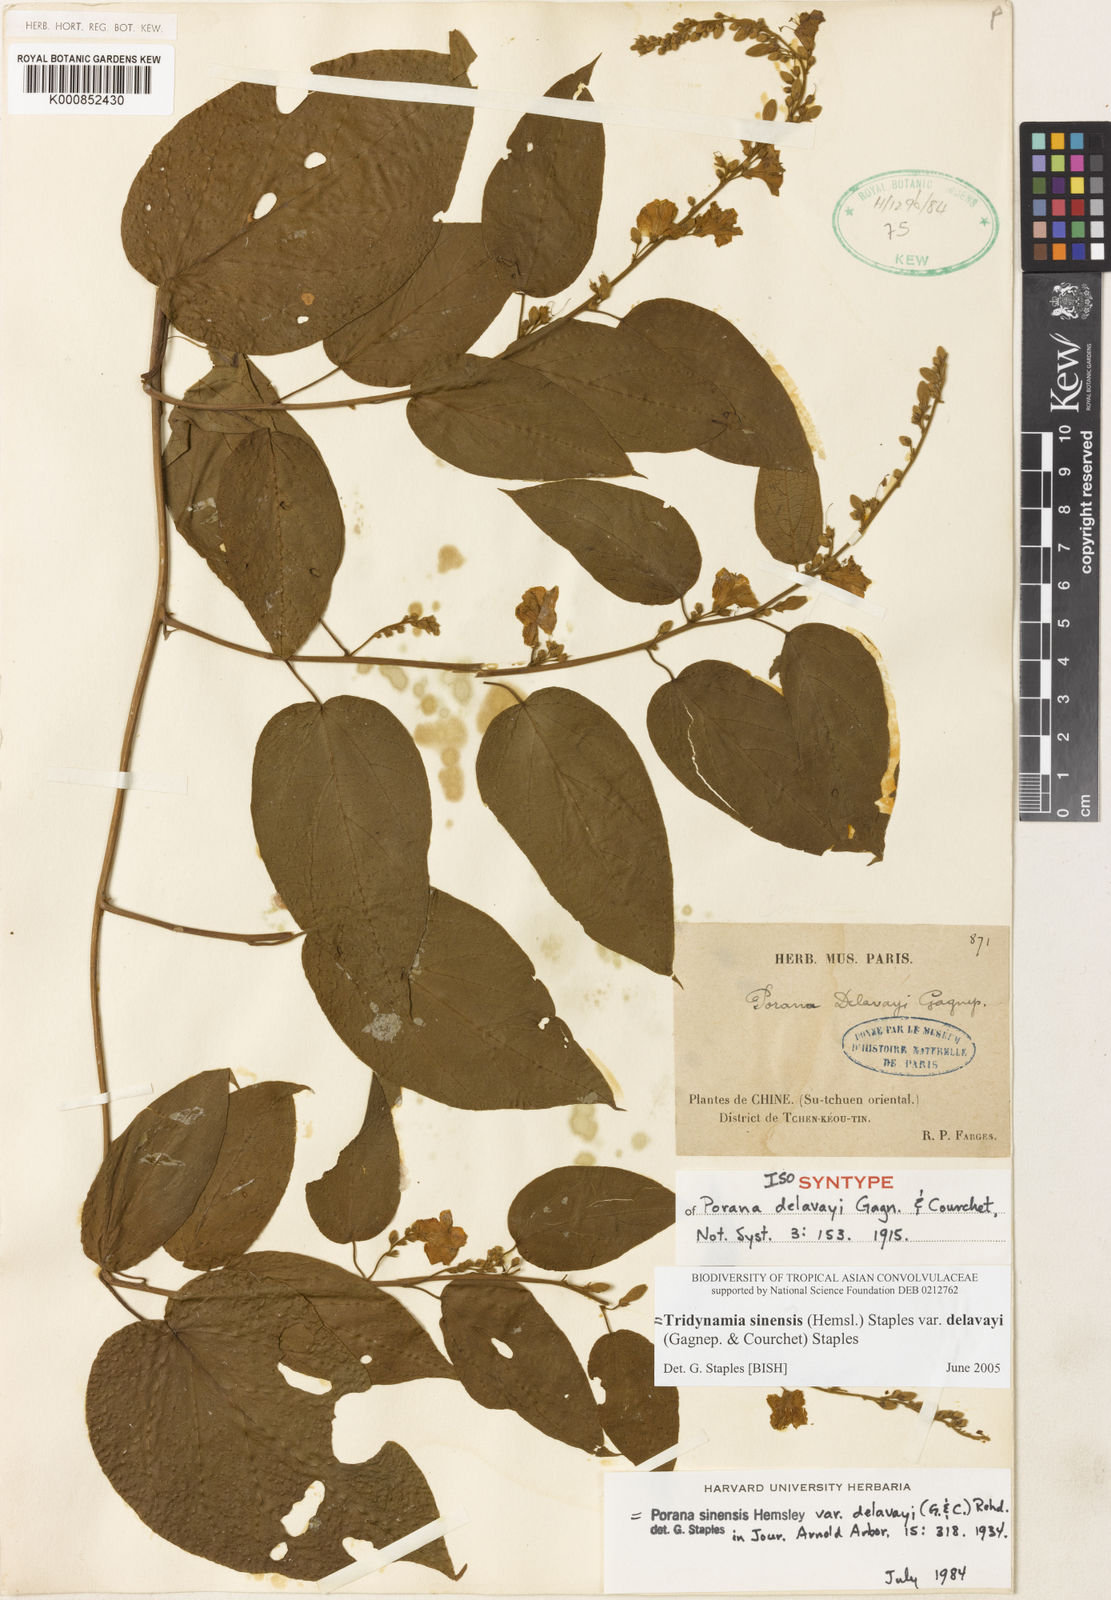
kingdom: Plantae
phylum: Tracheophyta
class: Magnoliopsida
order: Solanales
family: Convolvulaceae
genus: Tridynamia
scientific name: Tridynamia sinensis
